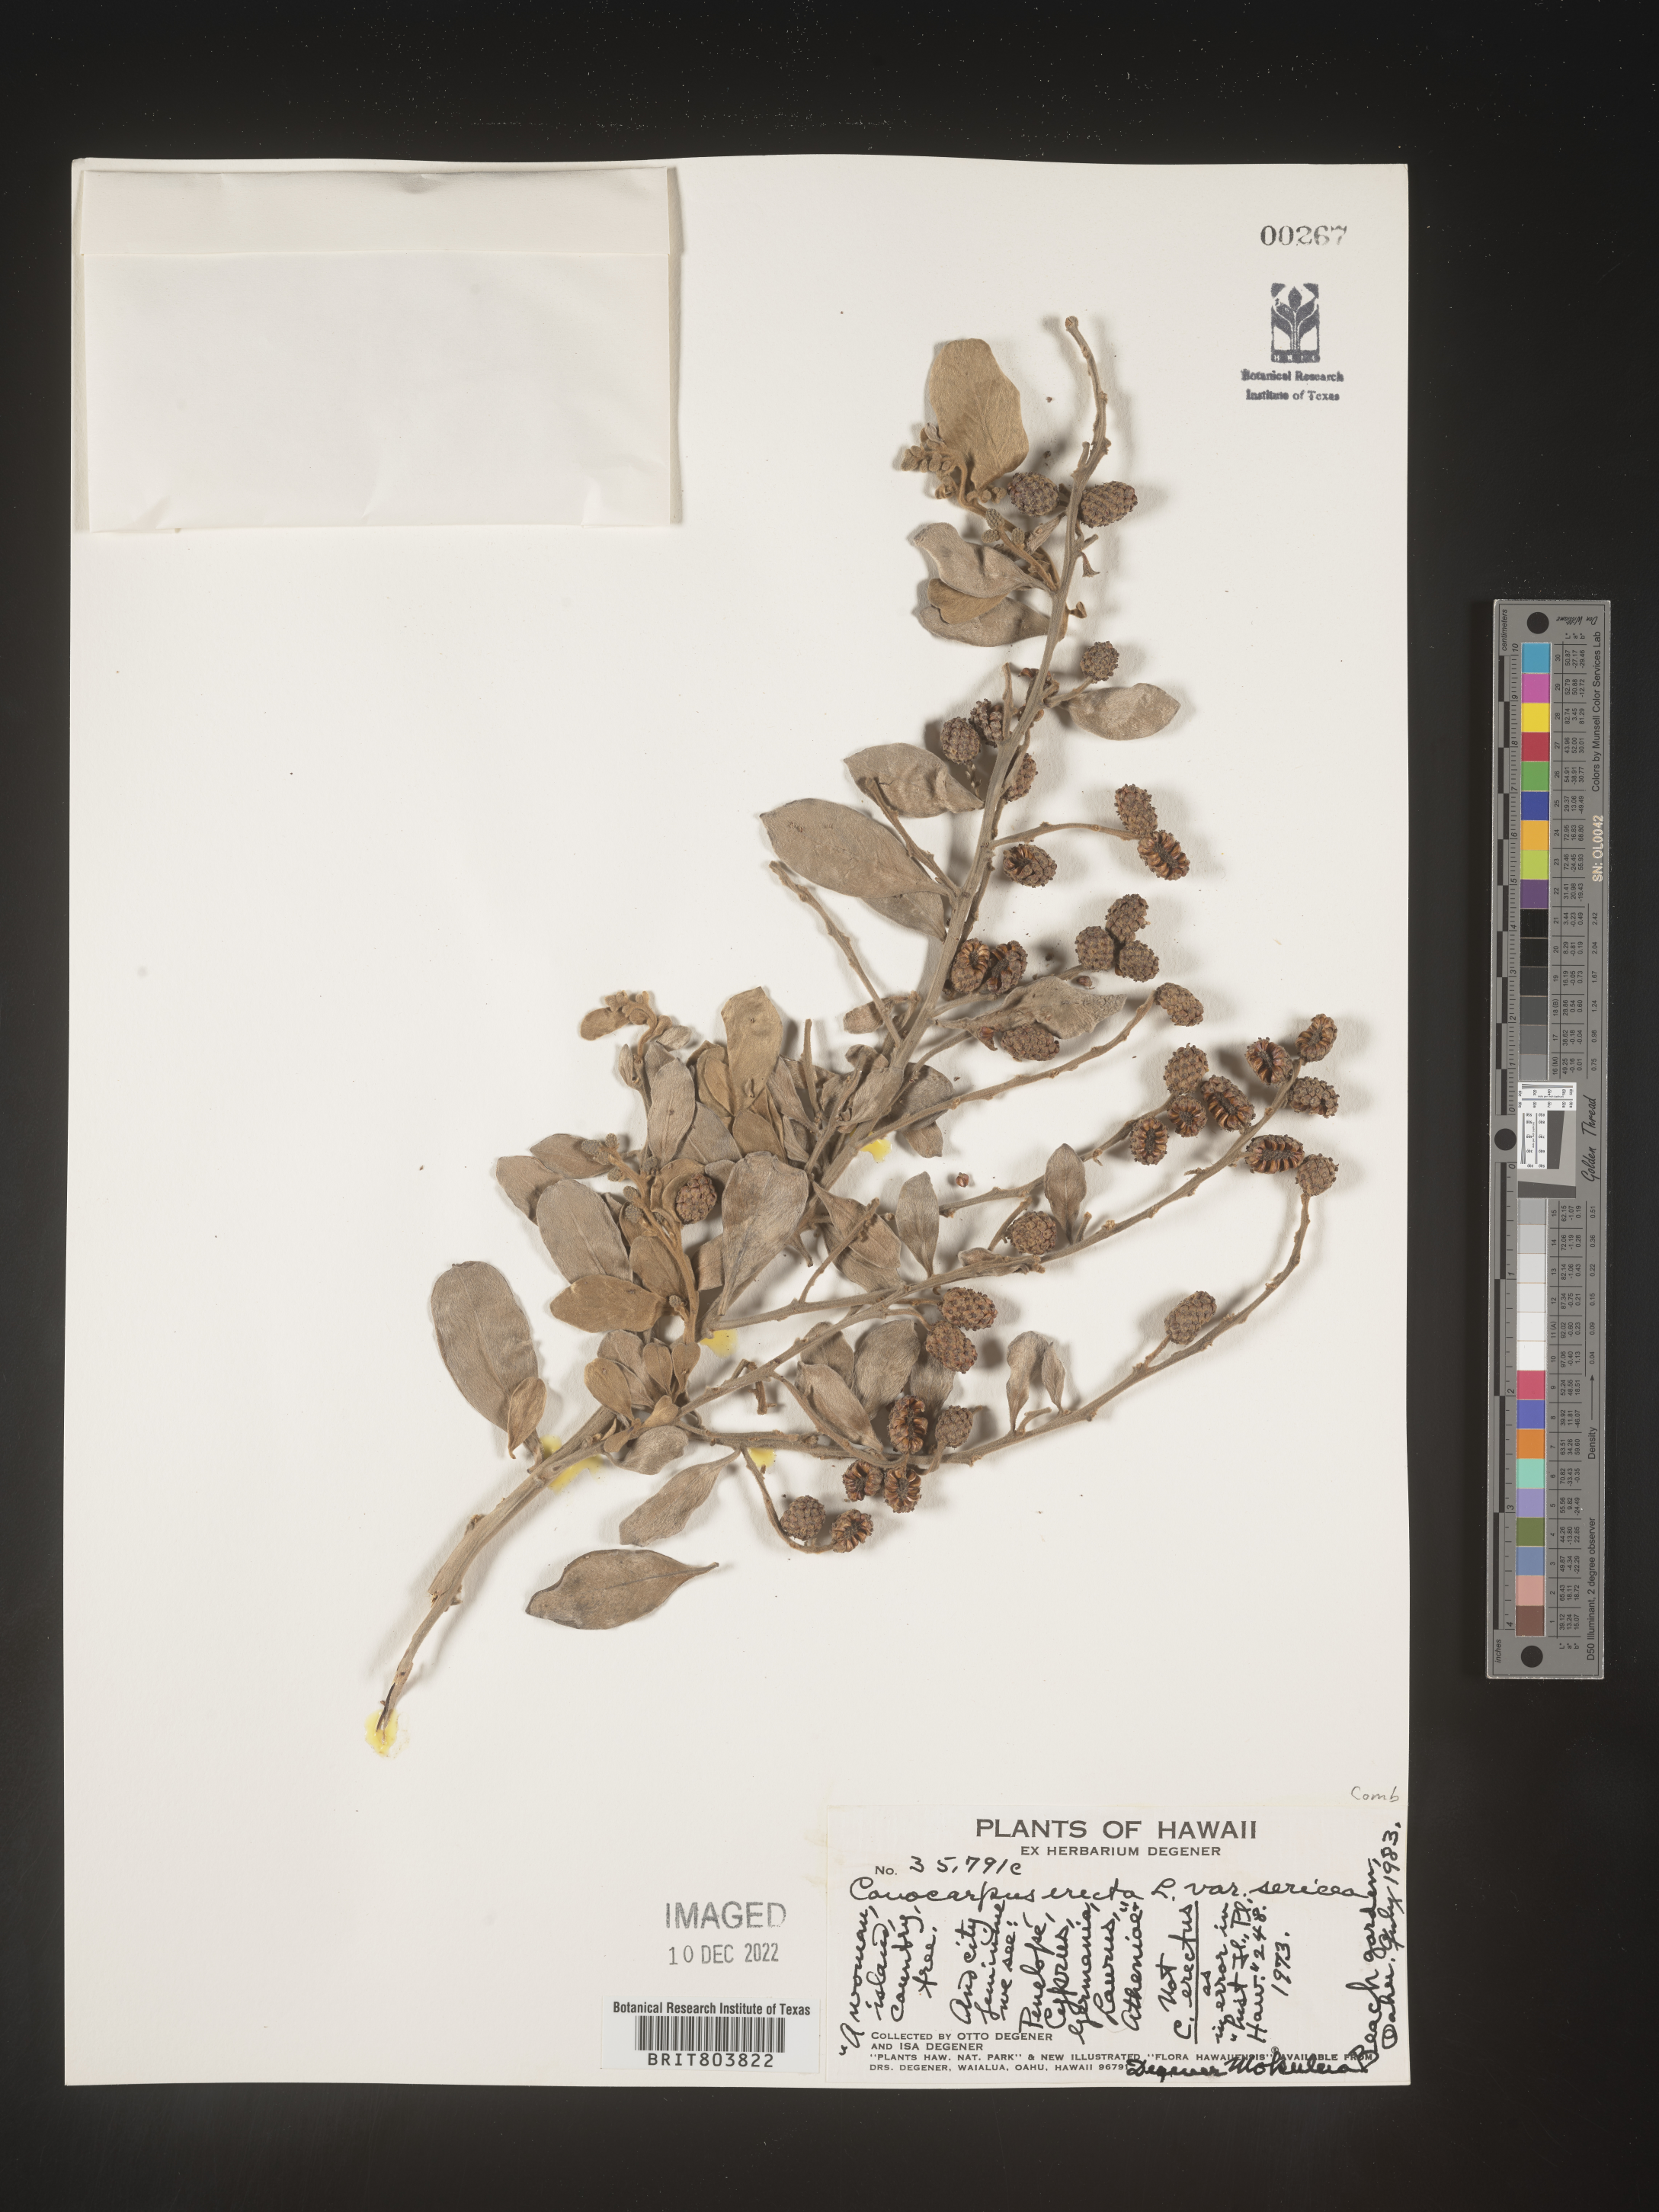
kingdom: Plantae
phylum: Tracheophyta
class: Magnoliopsida
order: Myrtales
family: Combretaceae
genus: Conocarpus
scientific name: Conocarpus
